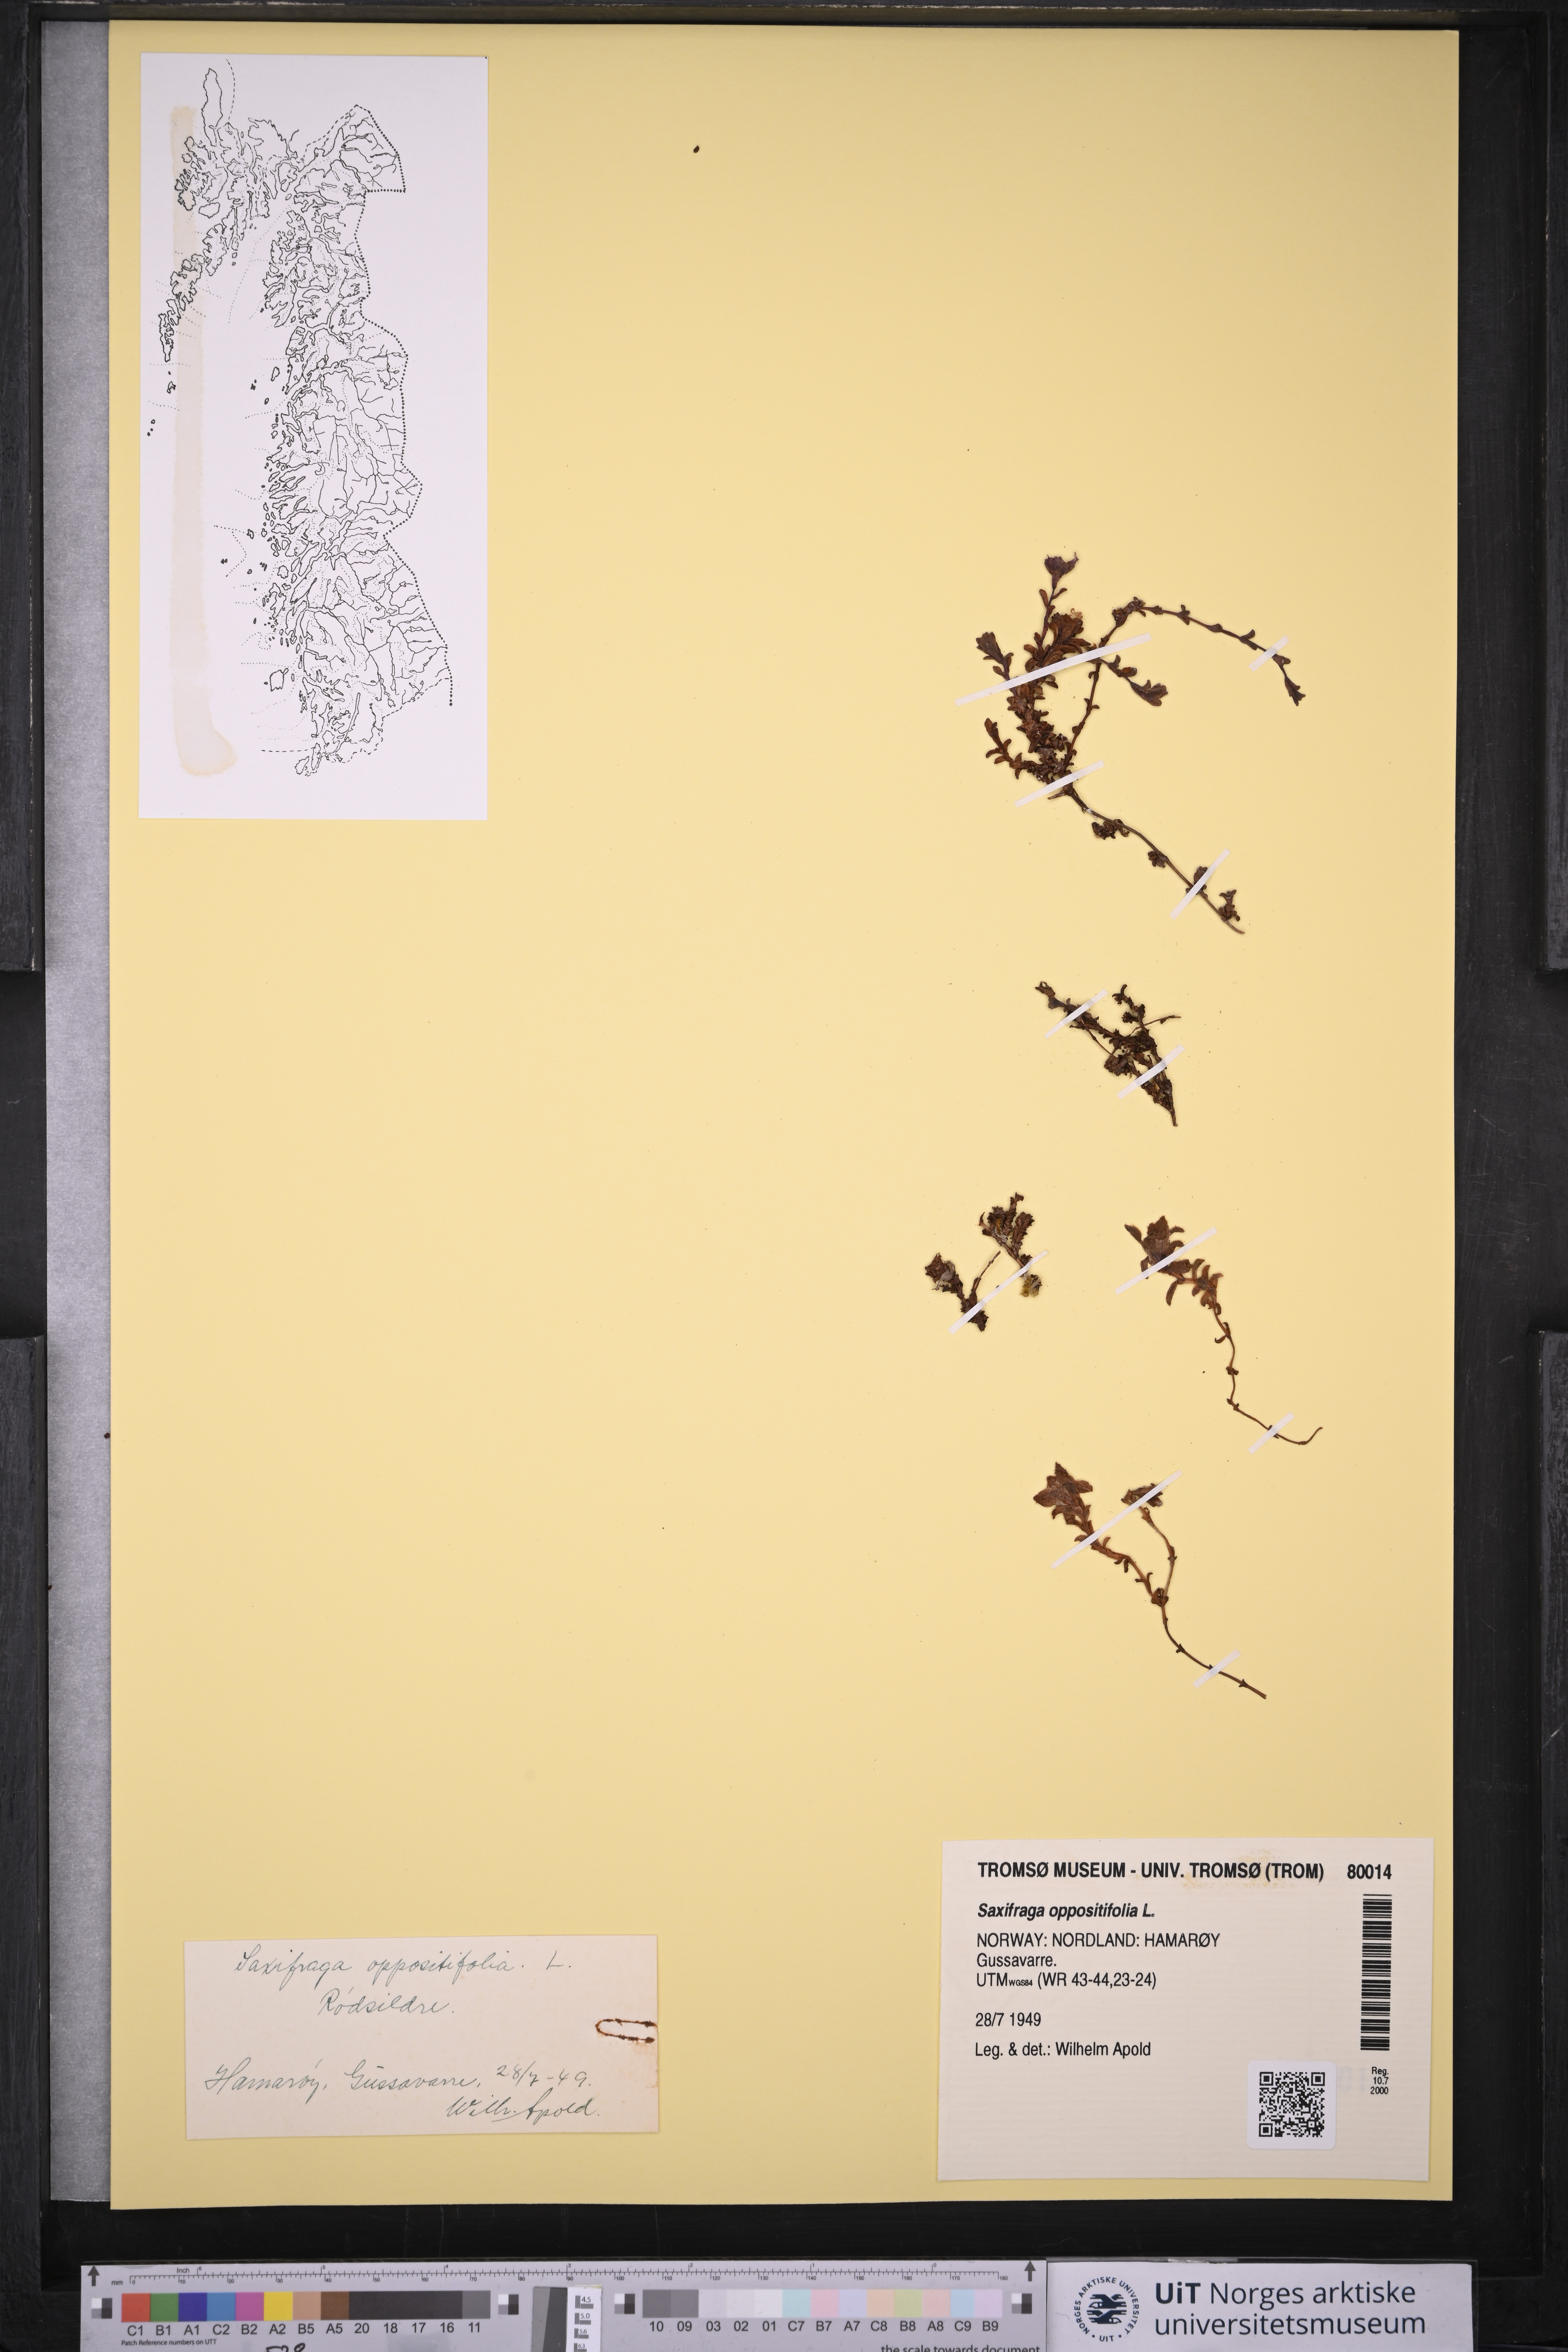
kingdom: Plantae
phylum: Tracheophyta
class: Magnoliopsida
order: Saxifragales
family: Saxifragaceae
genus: Saxifraga
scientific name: Saxifraga oppositifolia
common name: Purple saxifrage
